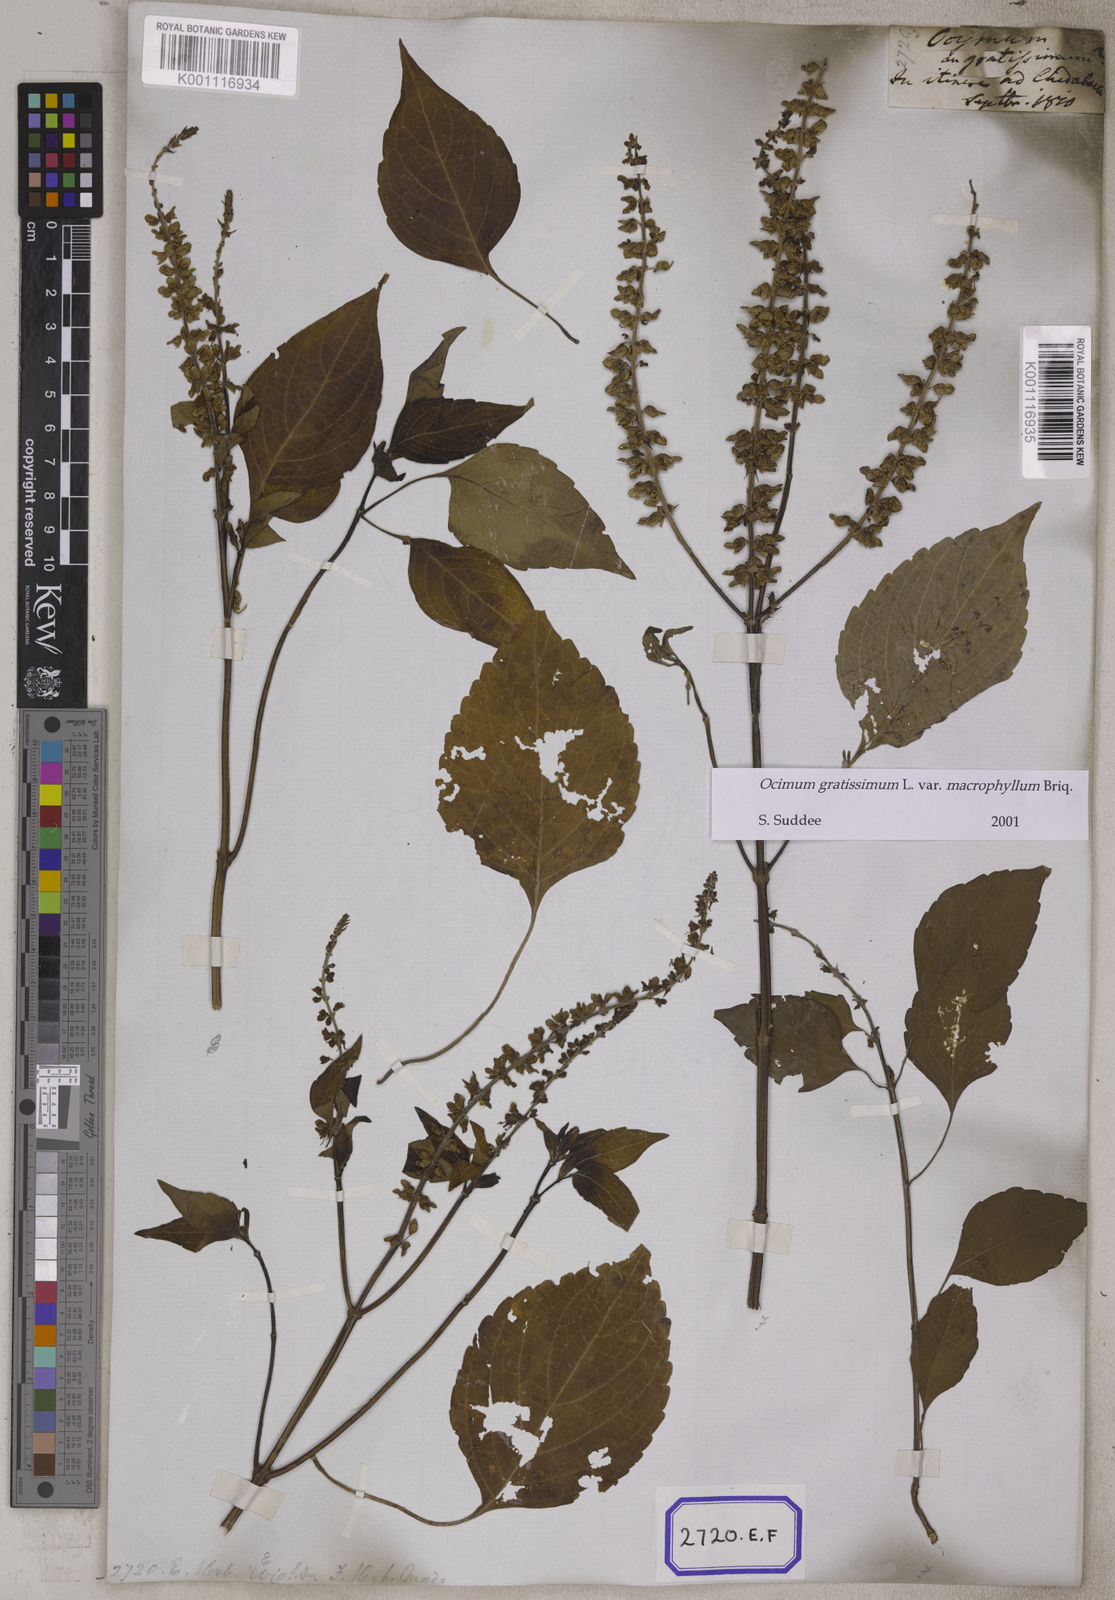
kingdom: Plantae
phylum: Tracheophyta
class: Magnoliopsida
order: Lamiales
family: Lamiaceae
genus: Ocimum
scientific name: Ocimum gratissimum
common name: African basil
